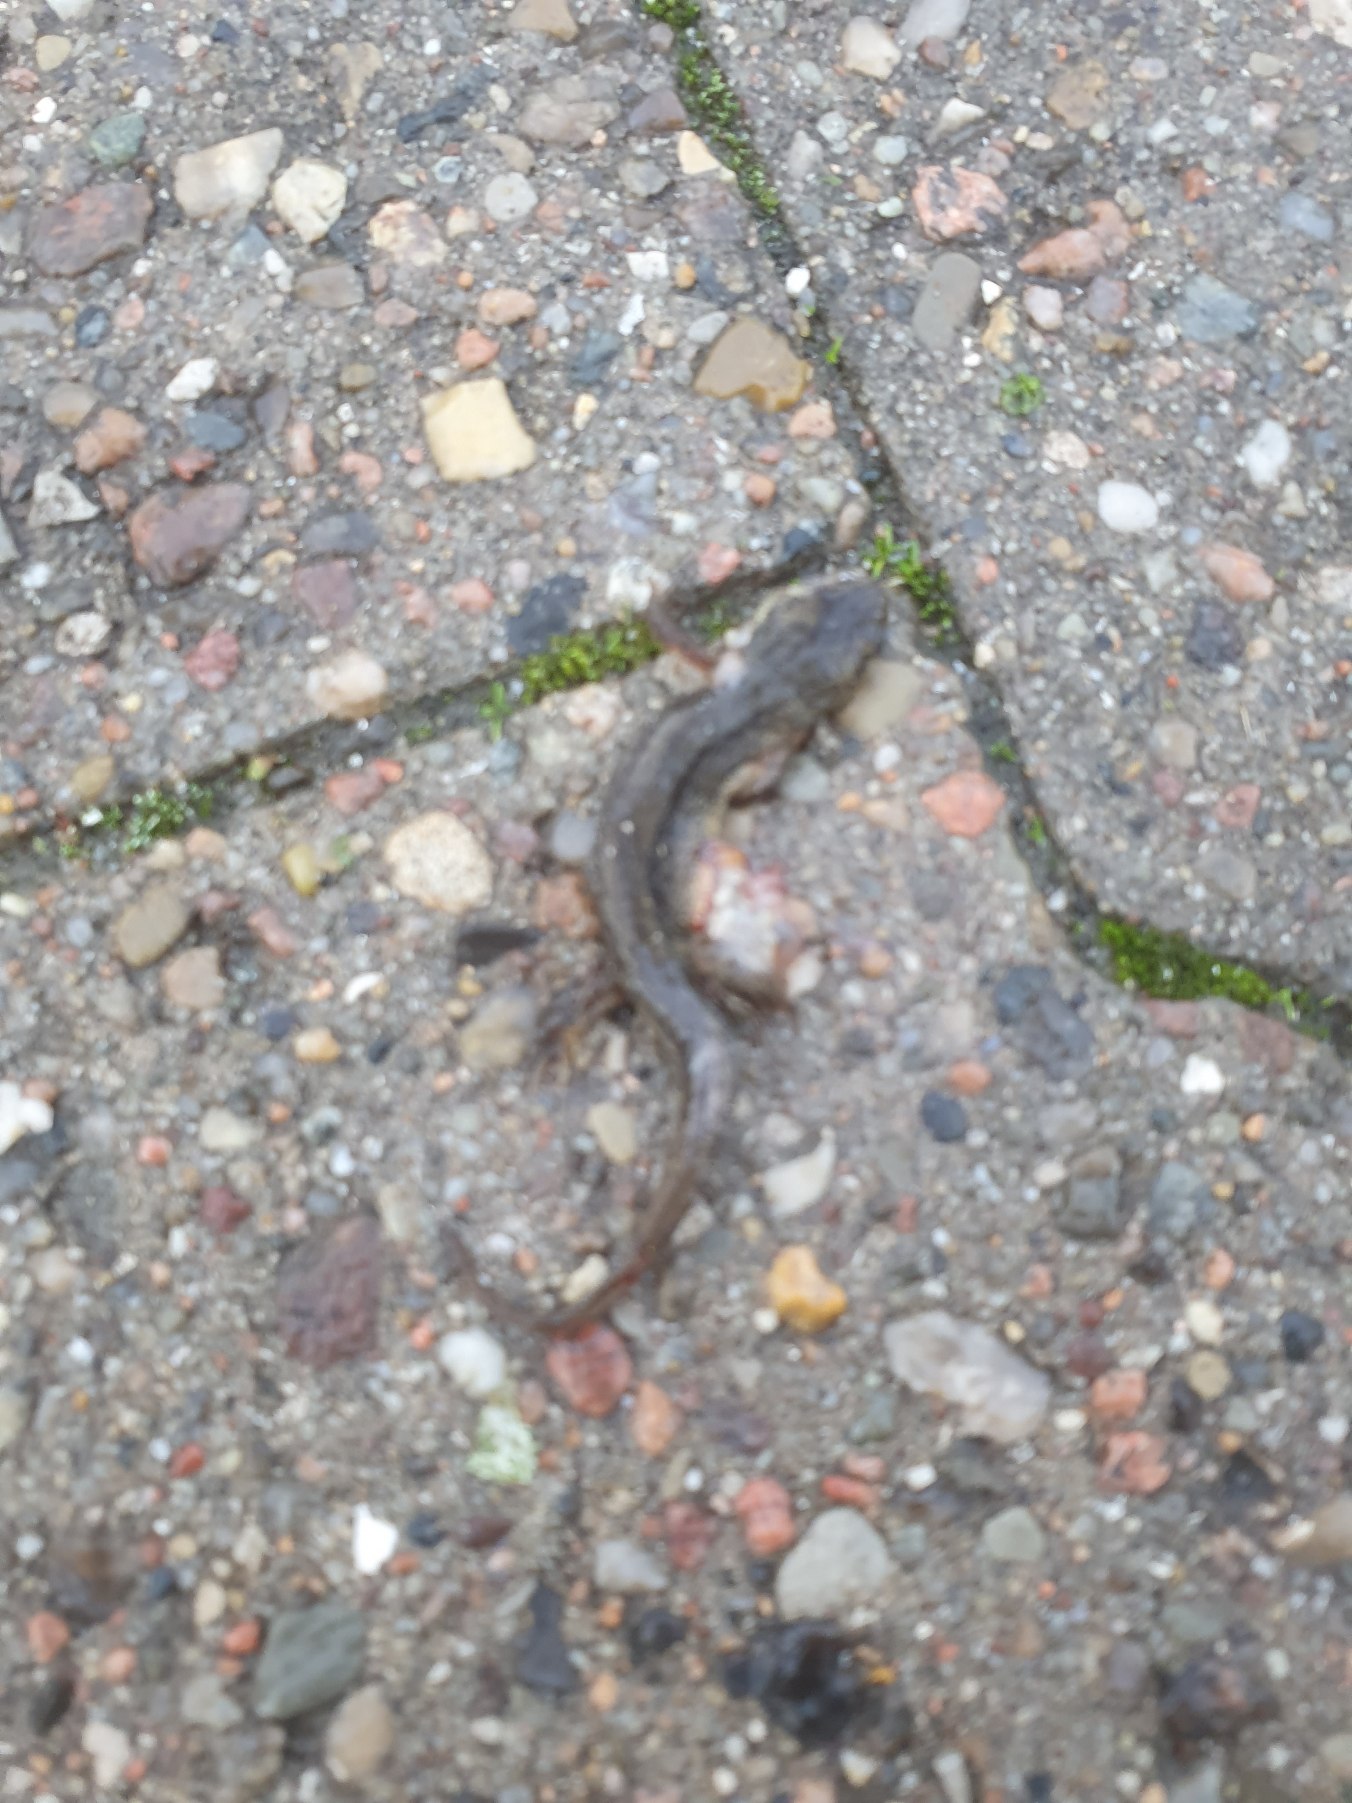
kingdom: Animalia
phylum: Chordata
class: Amphibia
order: Caudata
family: Salamandridae
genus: Lissotriton
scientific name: Lissotriton vulgaris
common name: Lille vandsalamander
